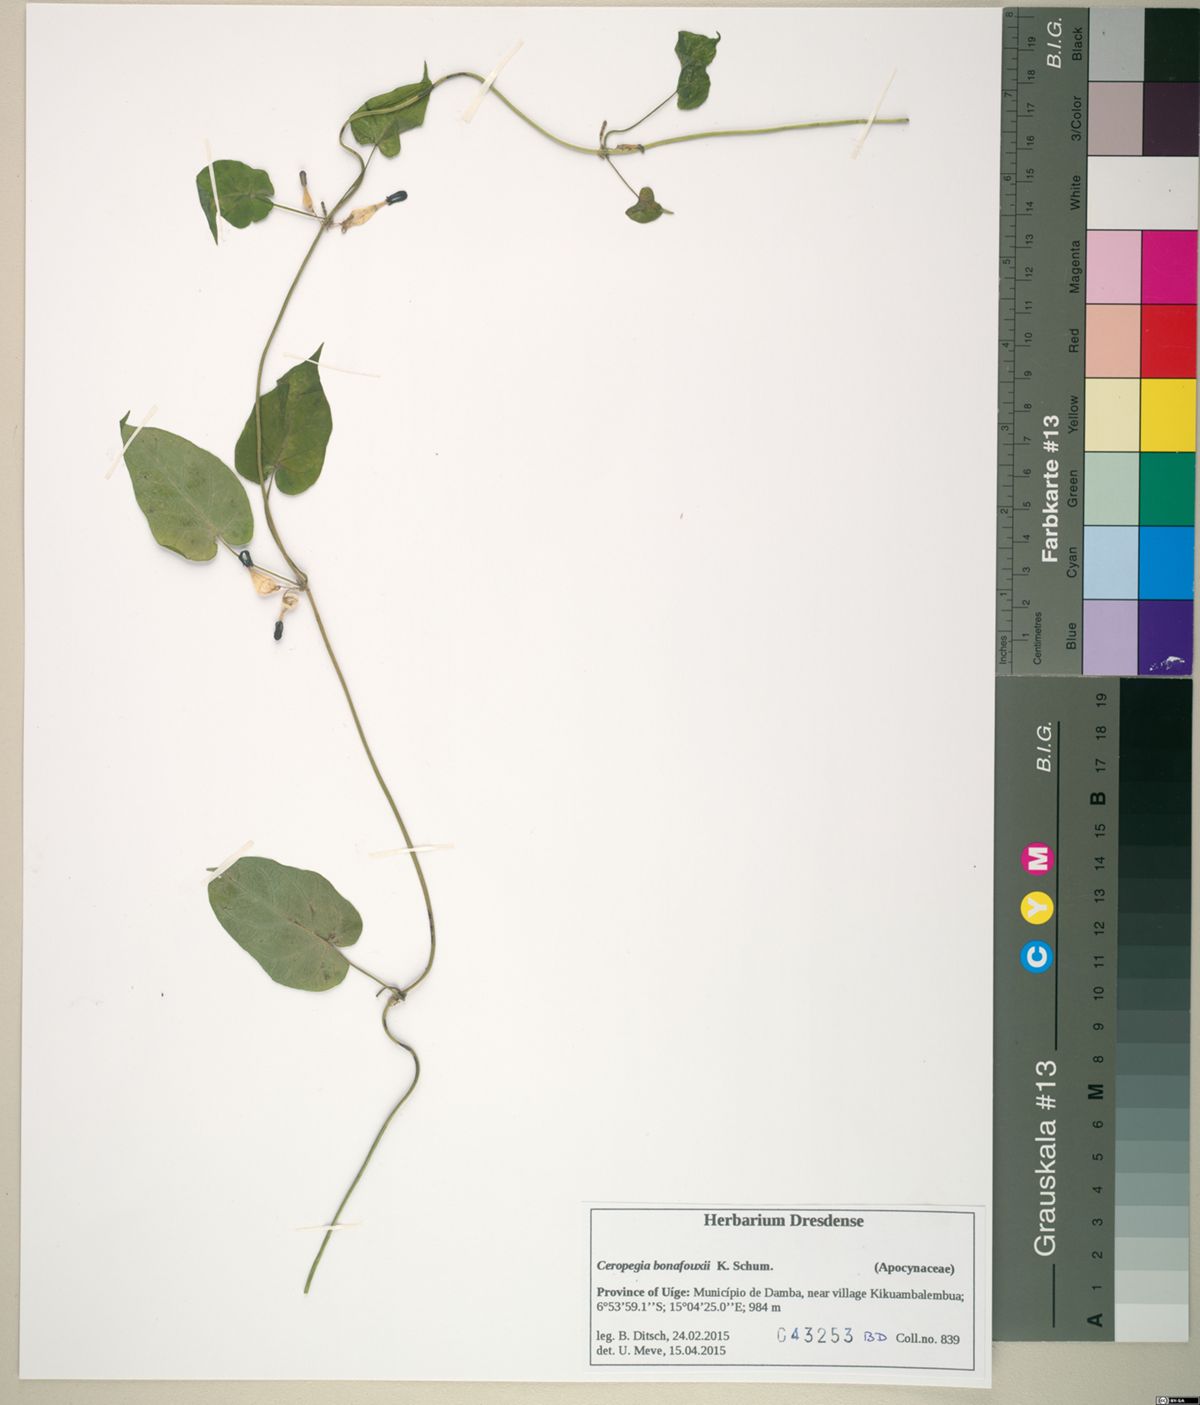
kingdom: Plantae
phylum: Tracheophyta
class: Magnoliopsida
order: Gentianales
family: Apocynaceae
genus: Ceropegia
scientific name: Ceropegia vanderystii
